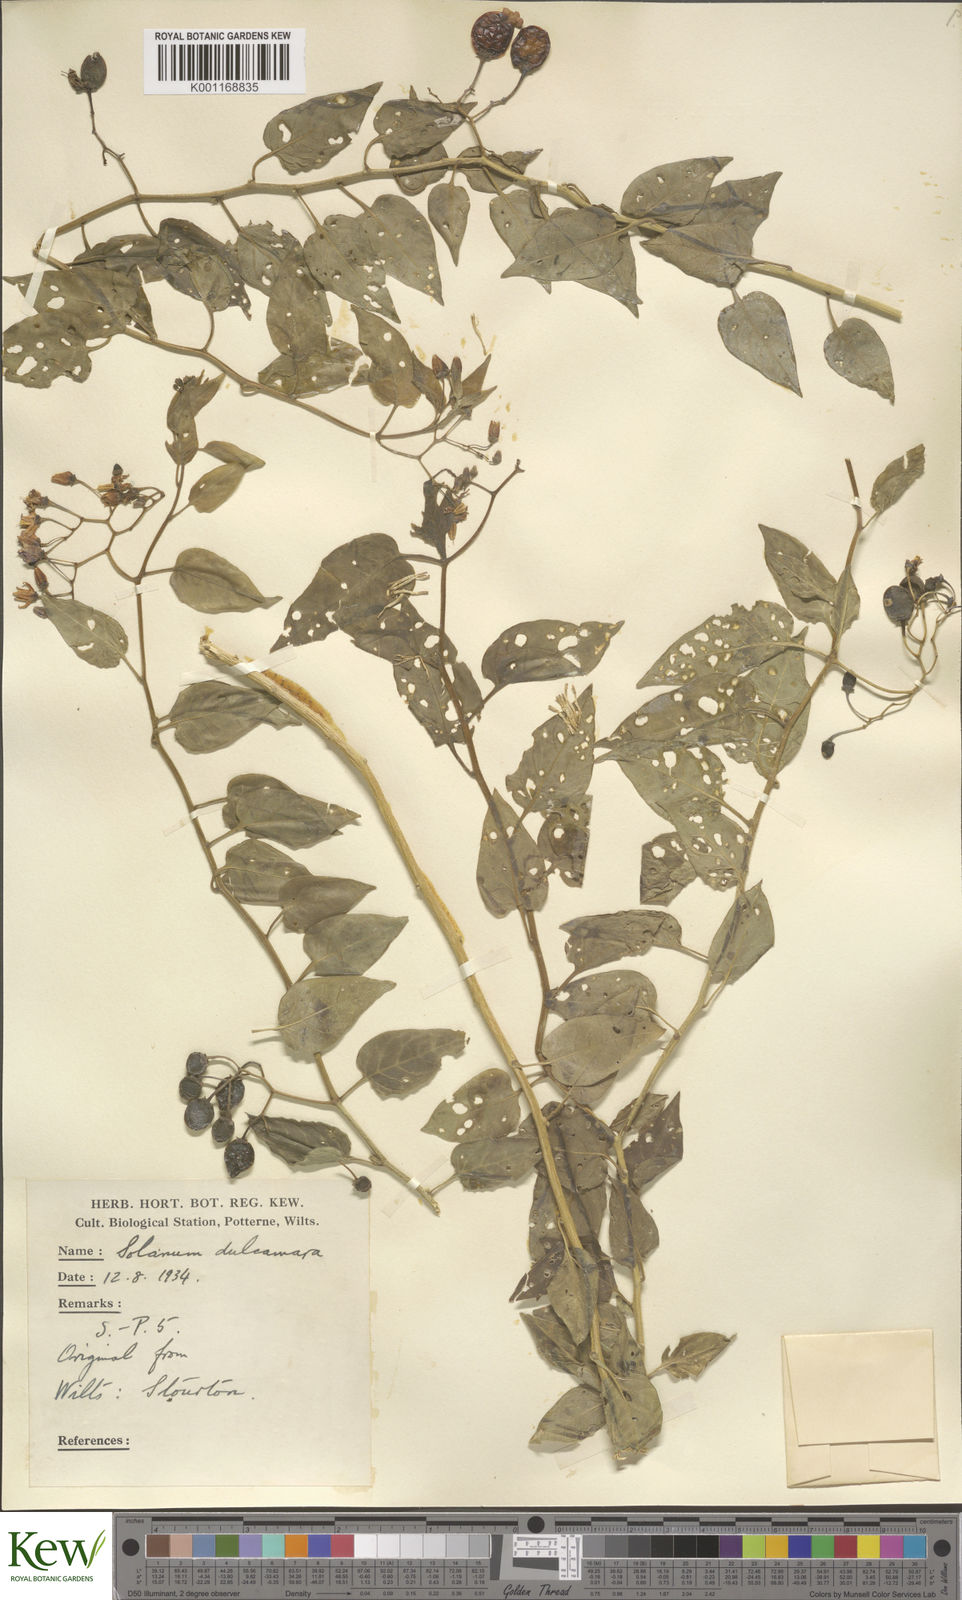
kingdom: Plantae
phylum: Tracheophyta
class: Magnoliopsida
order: Solanales
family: Solanaceae
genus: Solanum
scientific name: Solanum dulcamara
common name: Climbing nightshade
